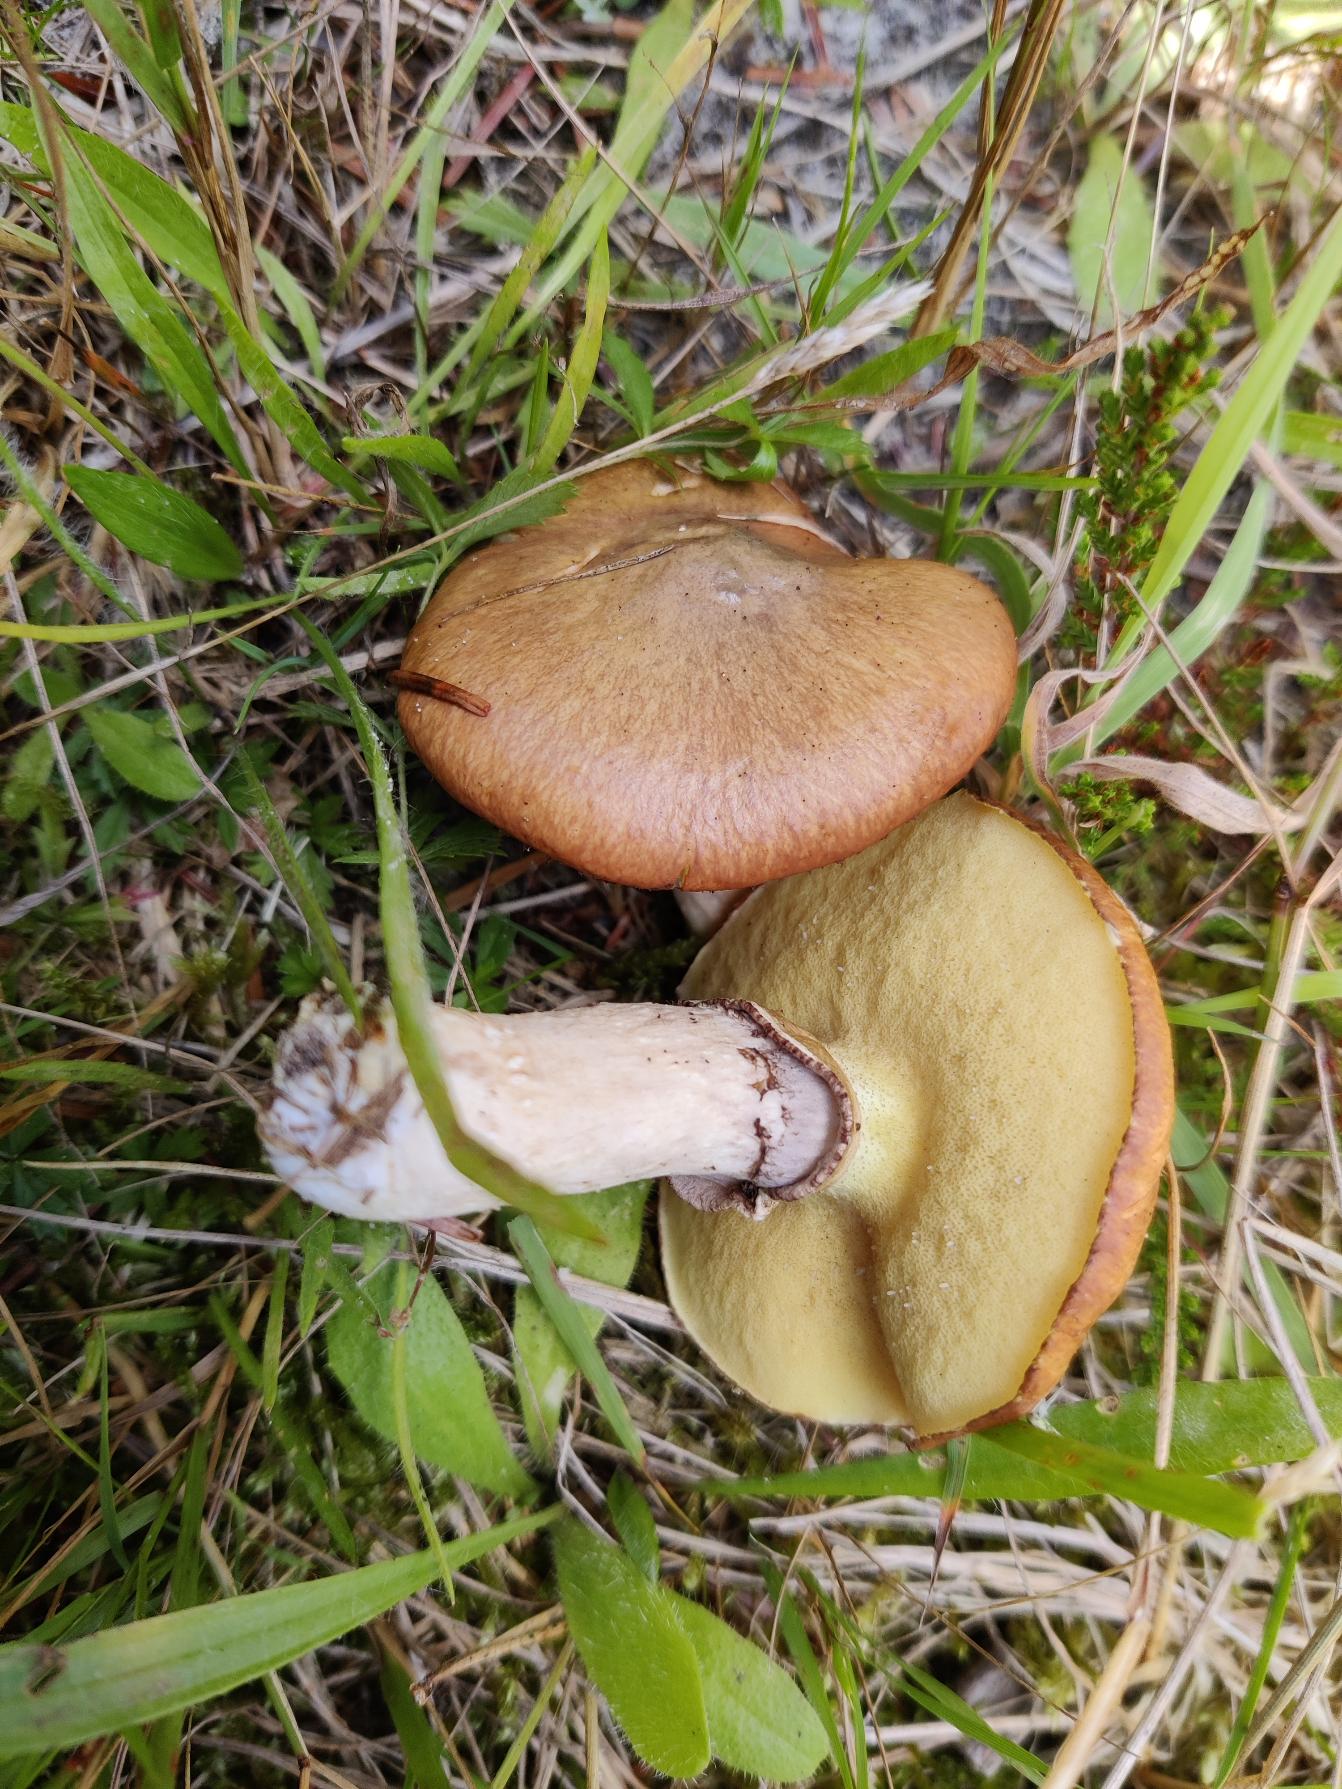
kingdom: Fungi
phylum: Basidiomycota
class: Agaricomycetes
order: Boletales
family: Suillaceae
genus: Suillus
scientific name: Suillus luteus
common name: Brungul slimrørhat
